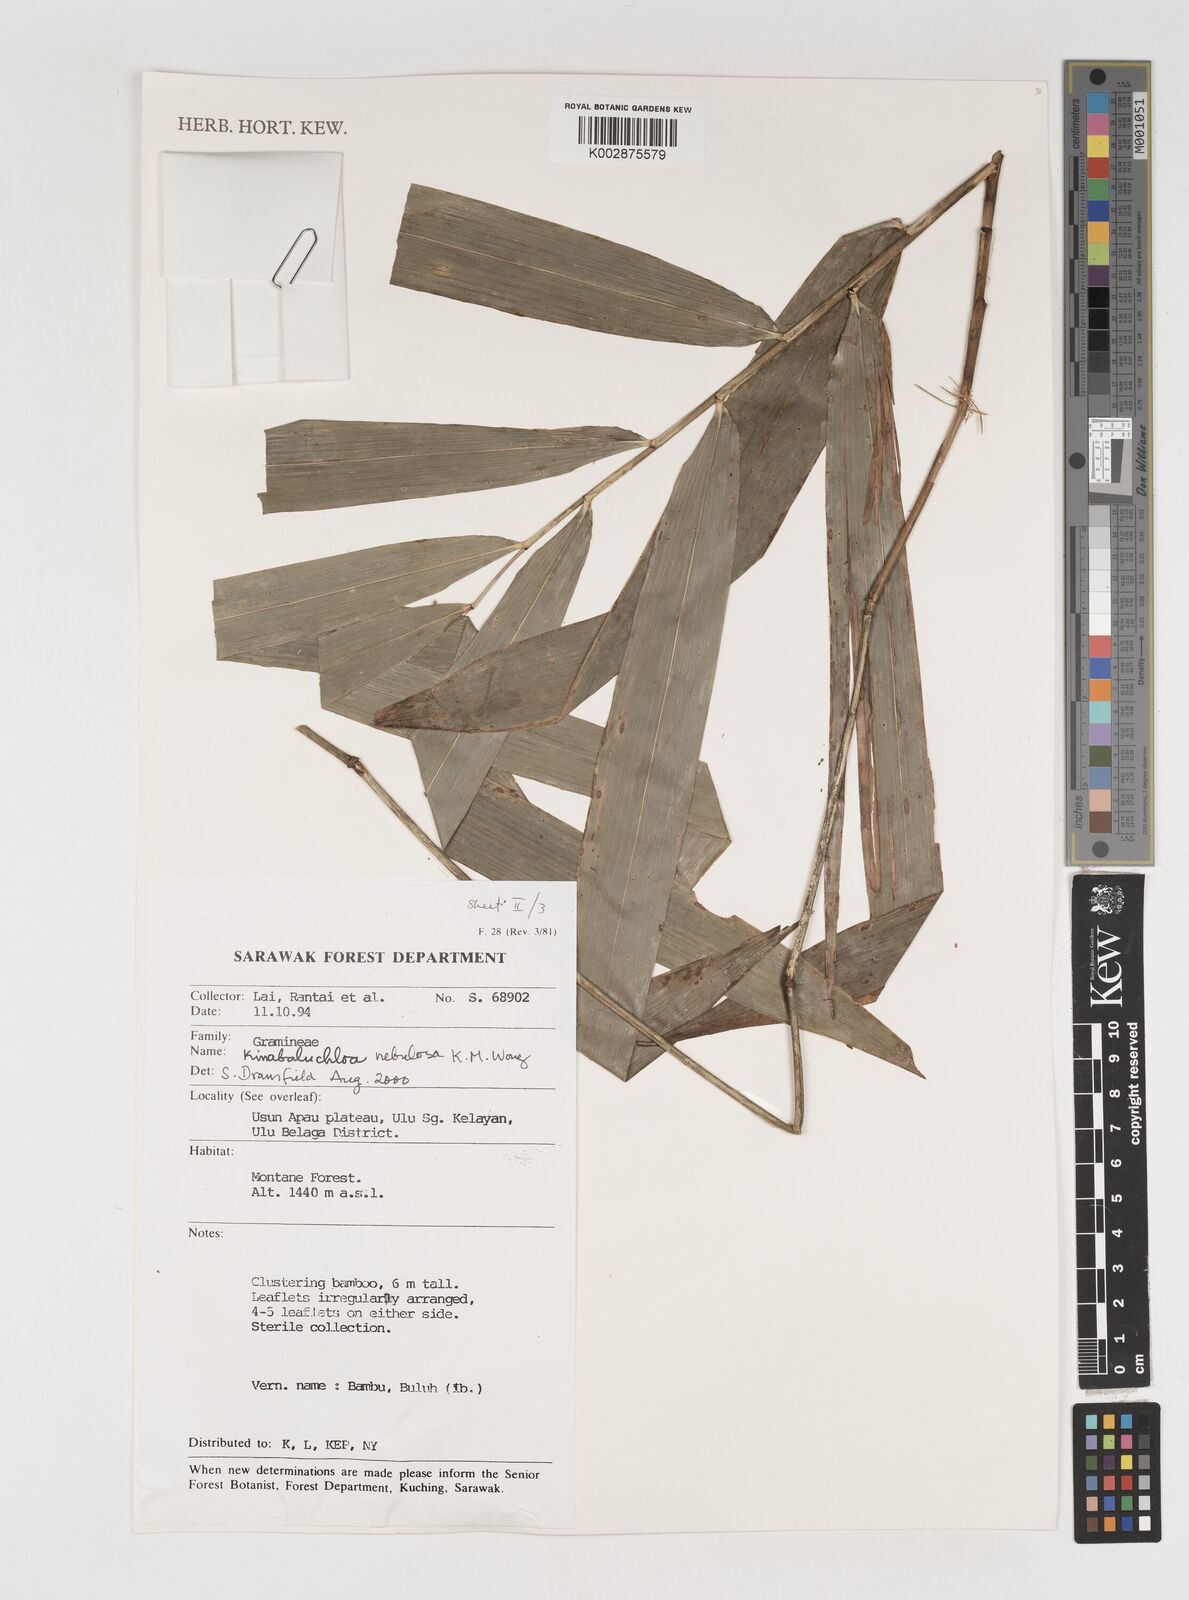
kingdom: Plantae
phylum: Tracheophyta
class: Liliopsida
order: Poales
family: Poaceae
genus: Kinabaluchloa
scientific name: Kinabaluchloa nebulosa
